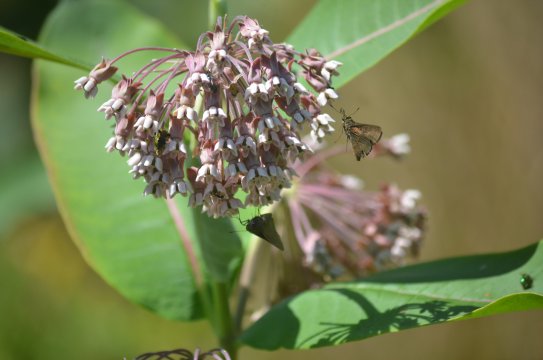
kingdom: Animalia
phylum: Arthropoda
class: Insecta
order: Lepidoptera
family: Hesperiidae
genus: Euphyes
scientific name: Euphyes vestris
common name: Dun Skipper
